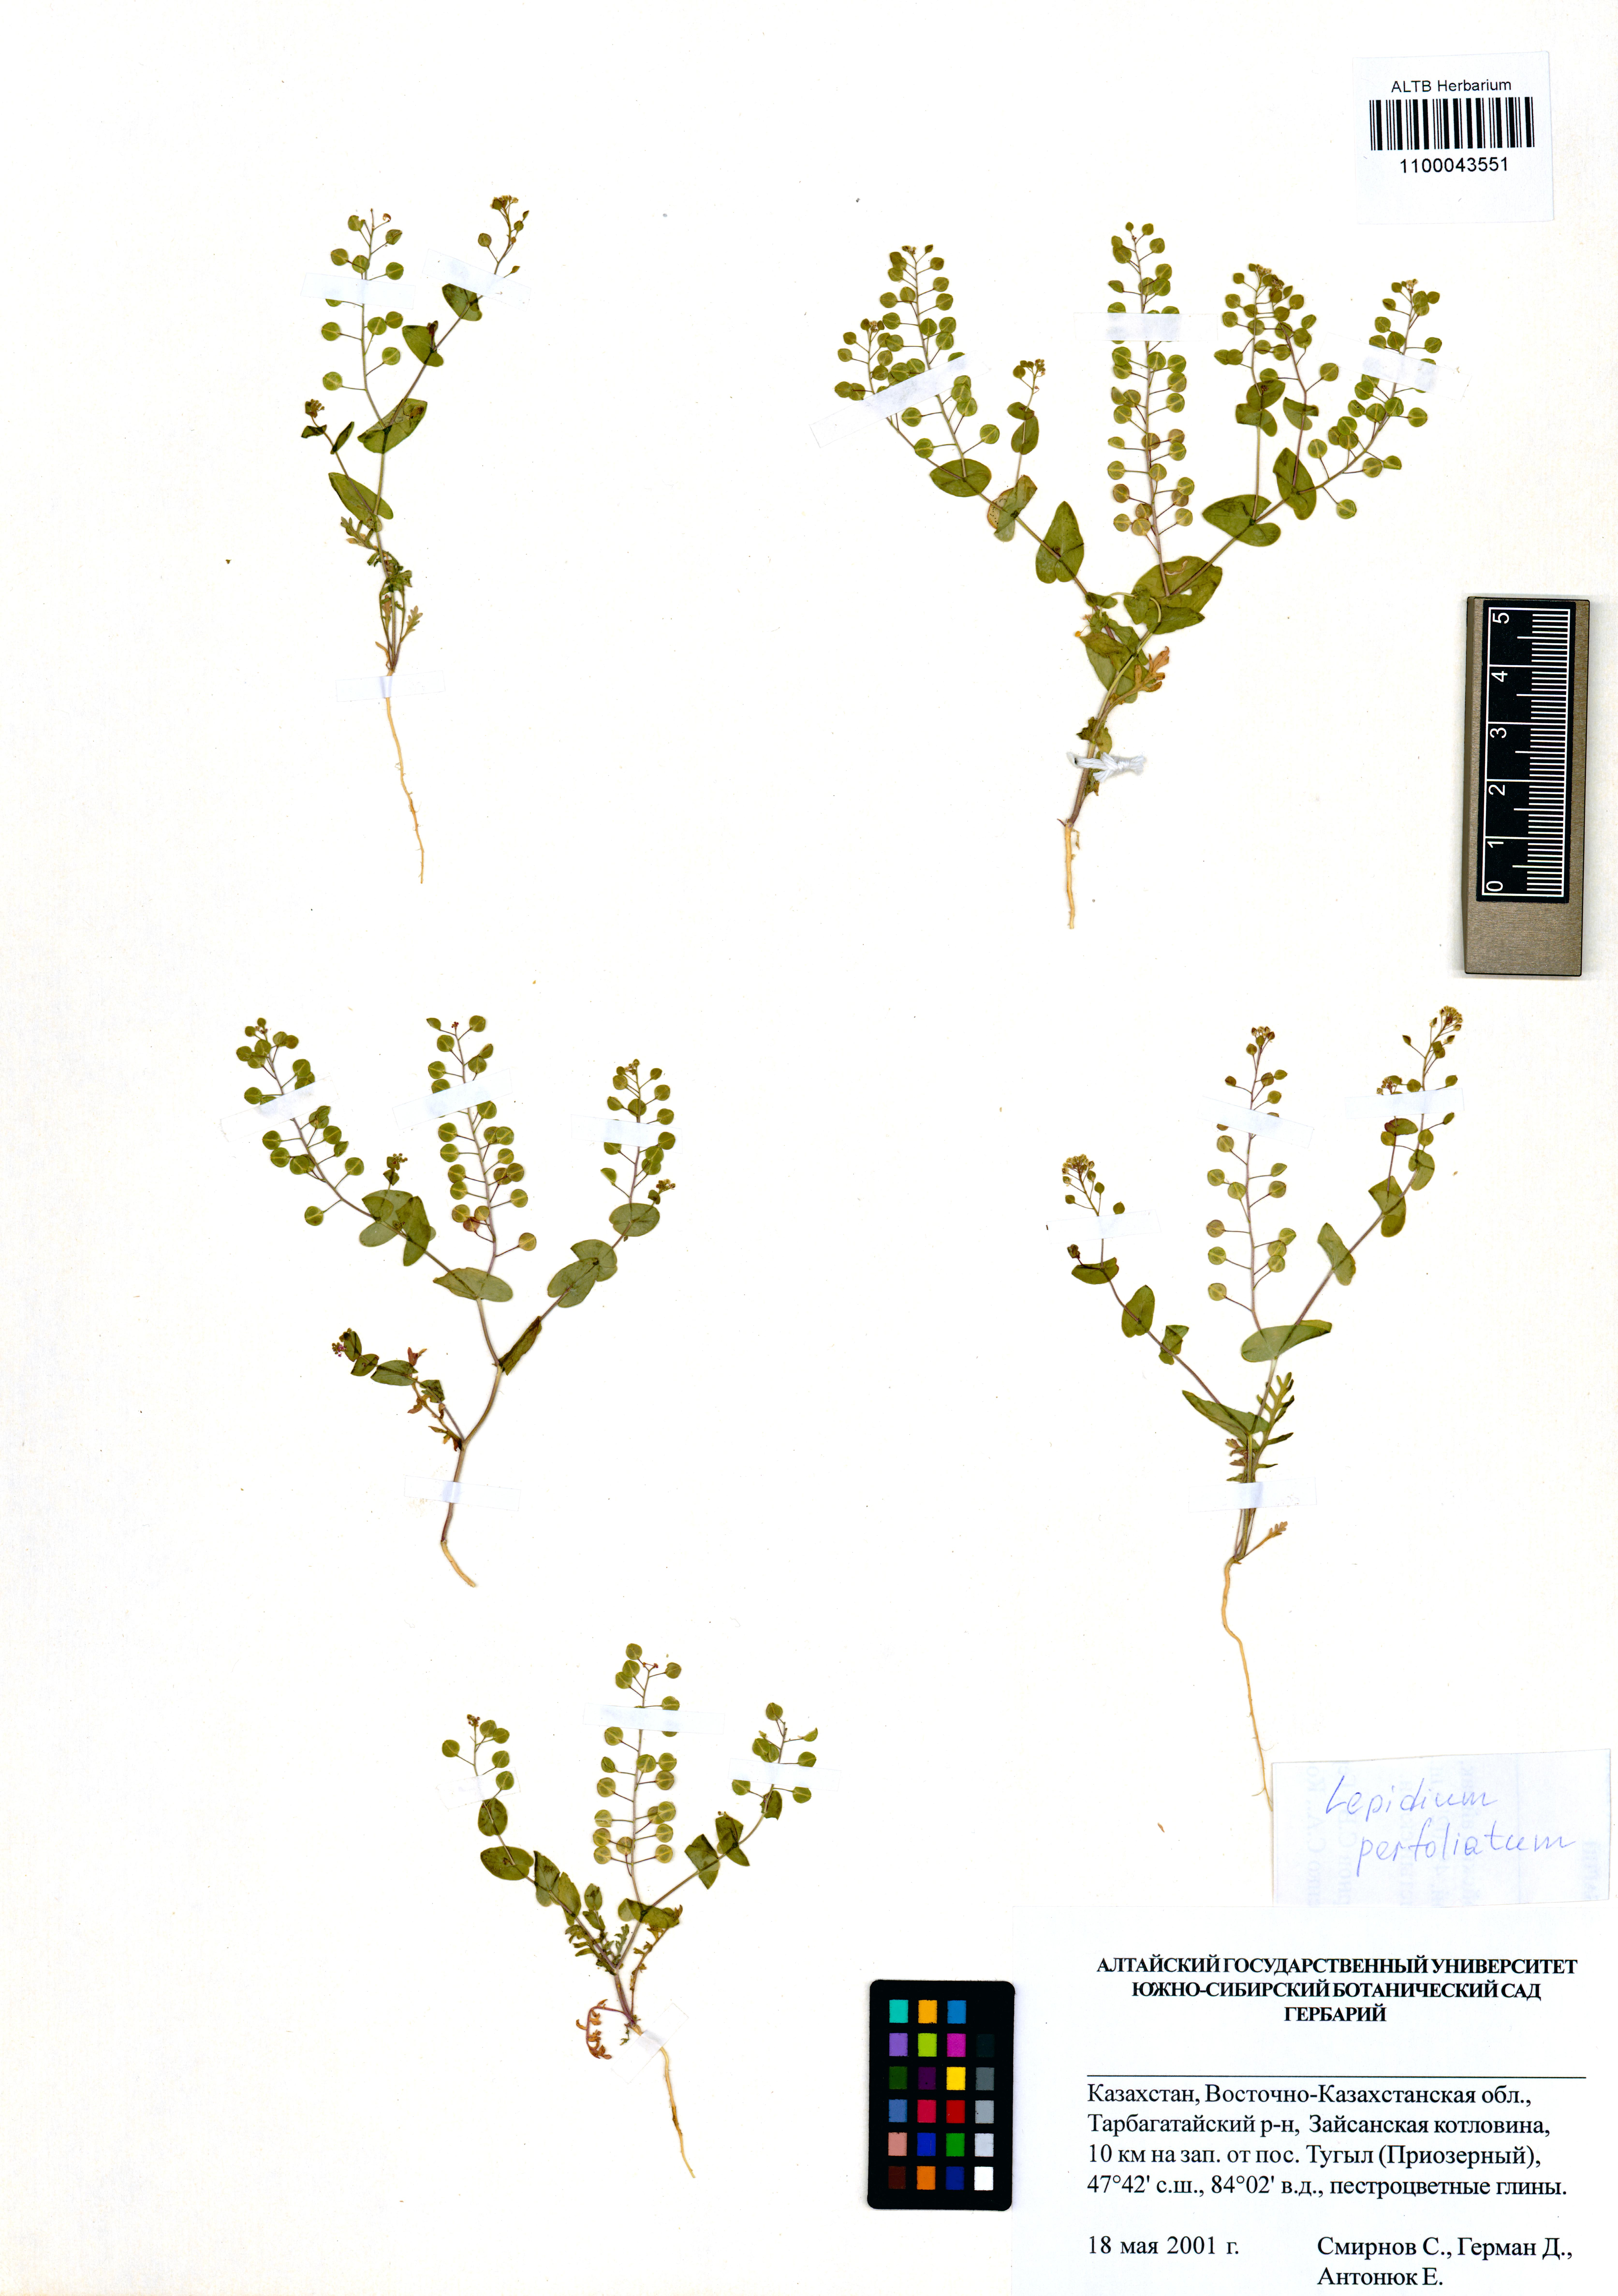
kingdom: Plantae
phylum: Tracheophyta
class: Magnoliopsida
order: Brassicales
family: Brassicaceae
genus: Lepidium
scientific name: Lepidium perfoliatum
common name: Perfoliate pepperwort
